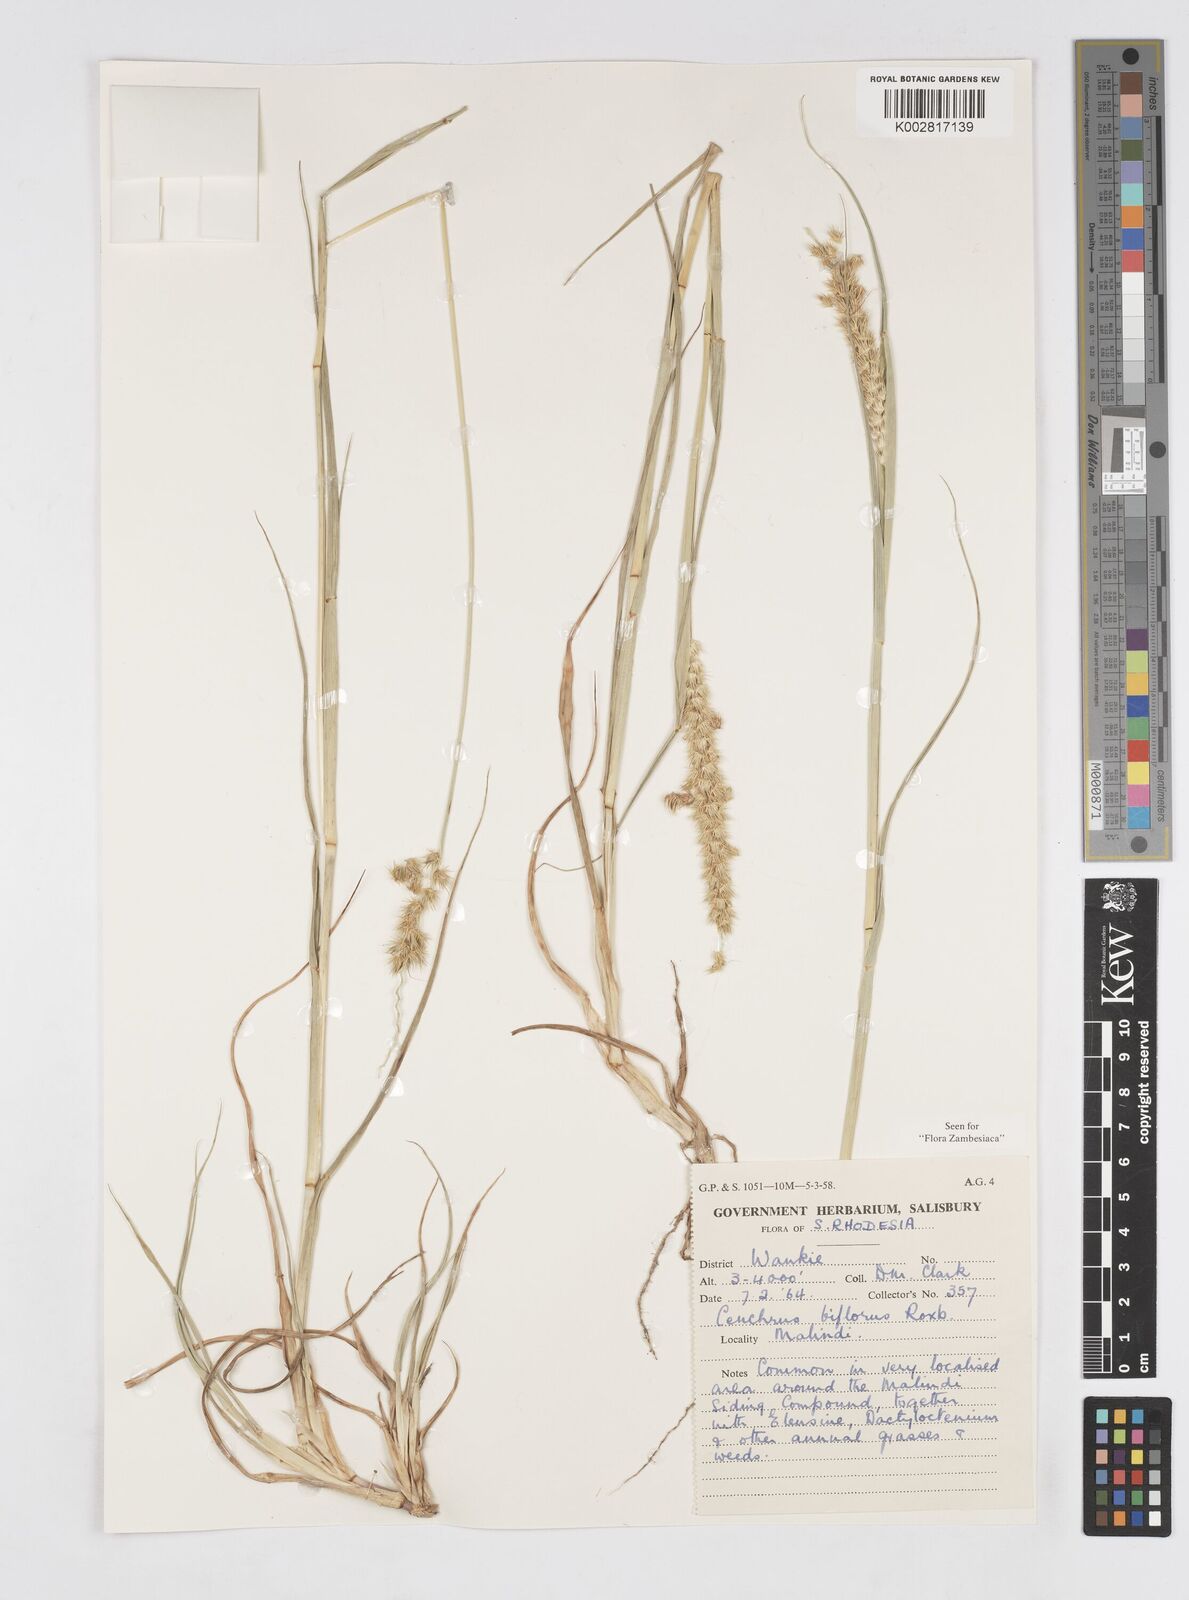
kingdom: Plantae
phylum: Tracheophyta
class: Liliopsida
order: Poales
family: Poaceae
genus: Cenchrus
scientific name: Cenchrus biflorus
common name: Indian sandbur
